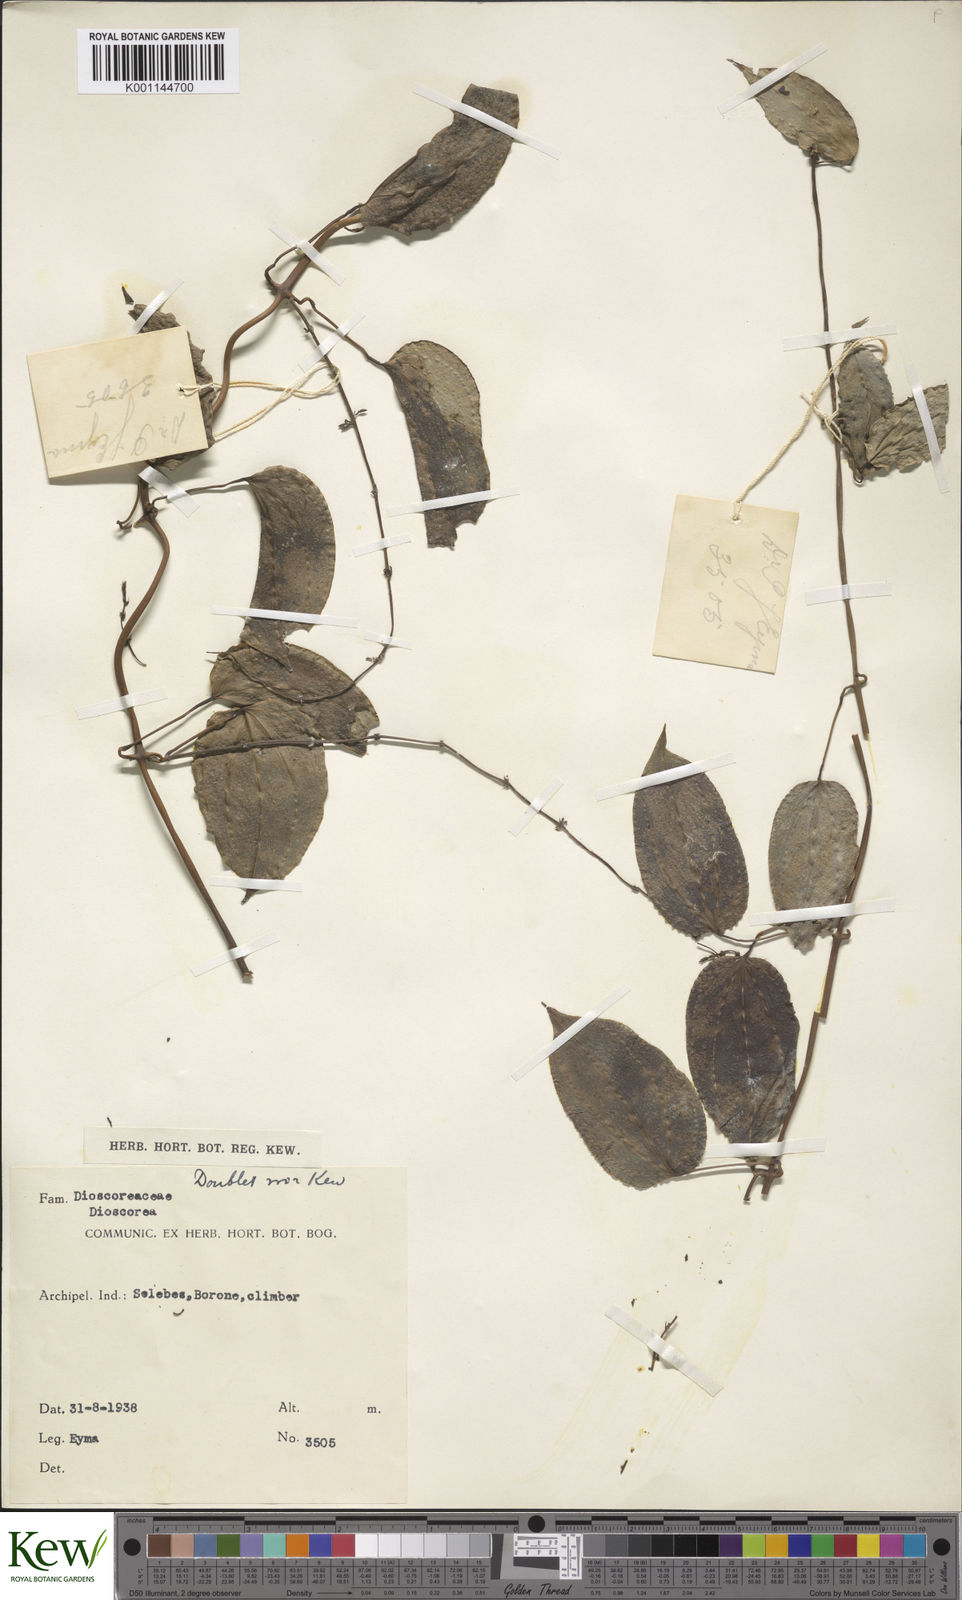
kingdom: Plantae
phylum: Tracheophyta
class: Liliopsida
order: Dioscoreales
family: Dioscoreaceae
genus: Dioscorea
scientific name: Dioscorea
